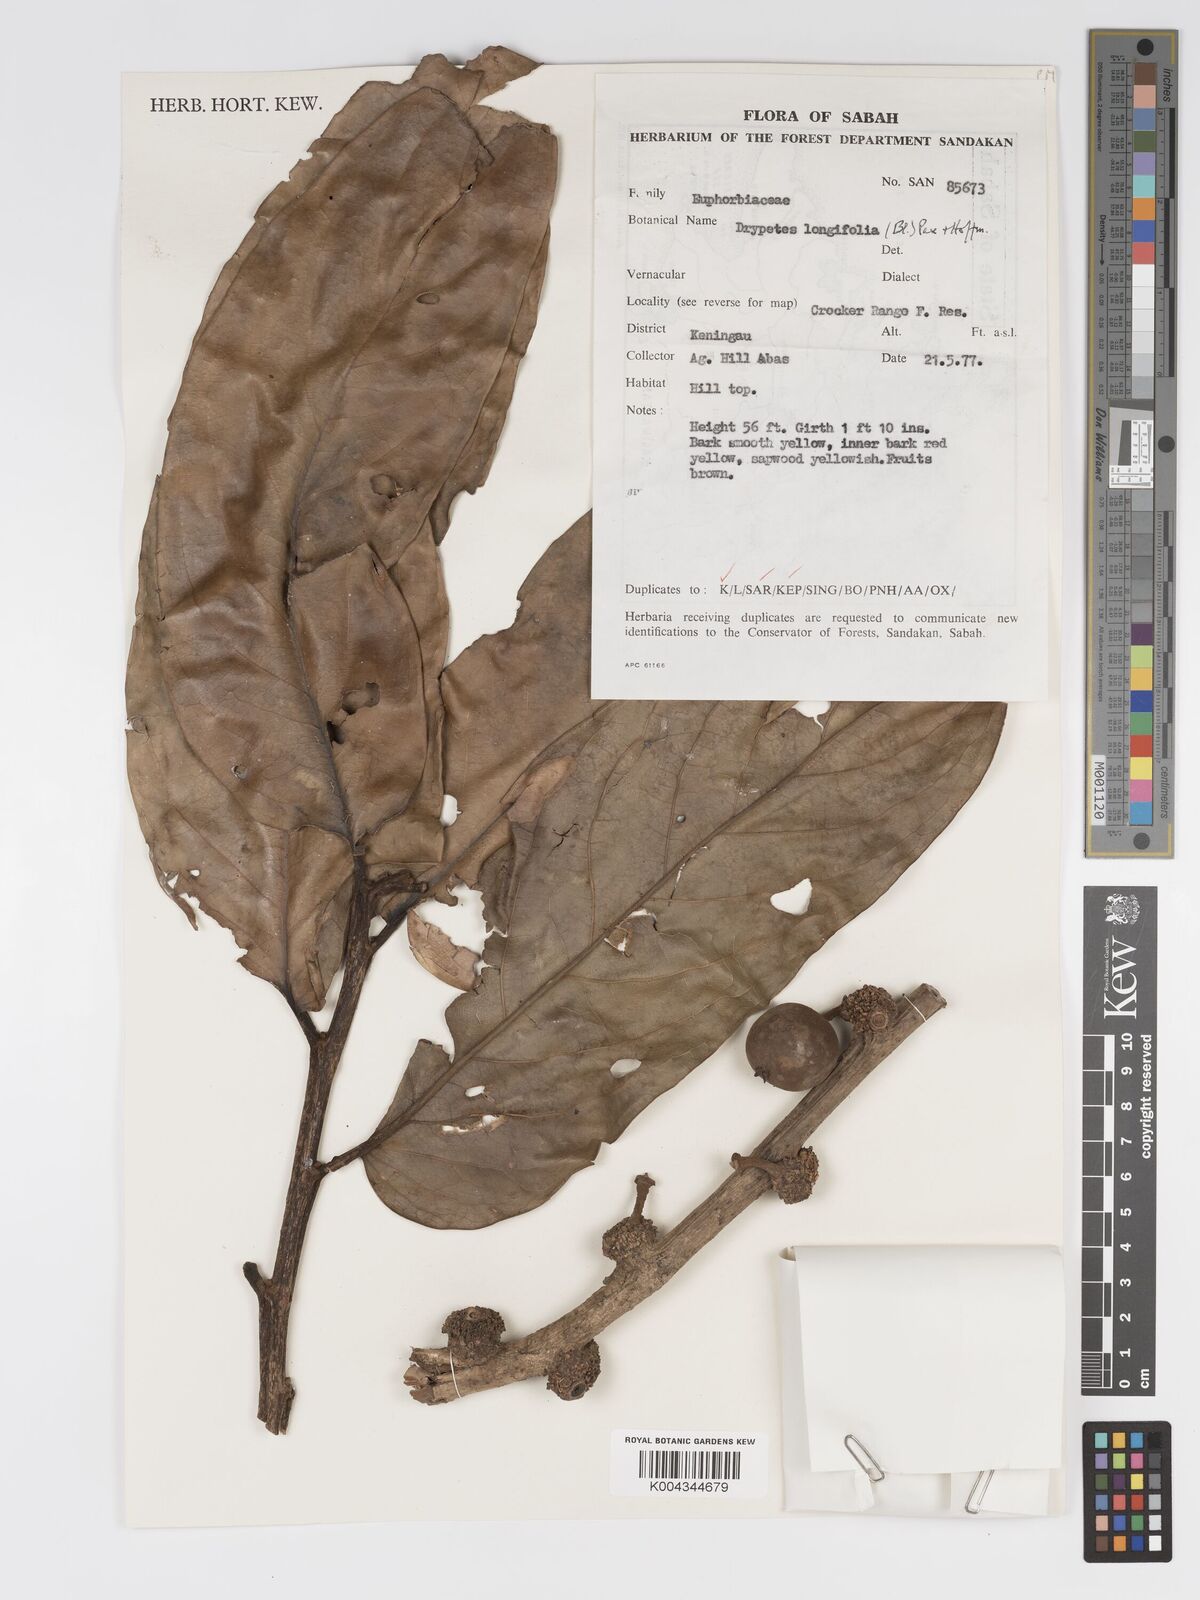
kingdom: Plantae
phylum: Tracheophyta
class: Magnoliopsida
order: Malpighiales
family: Putranjivaceae
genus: Drypetes
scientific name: Drypetes longifolia
